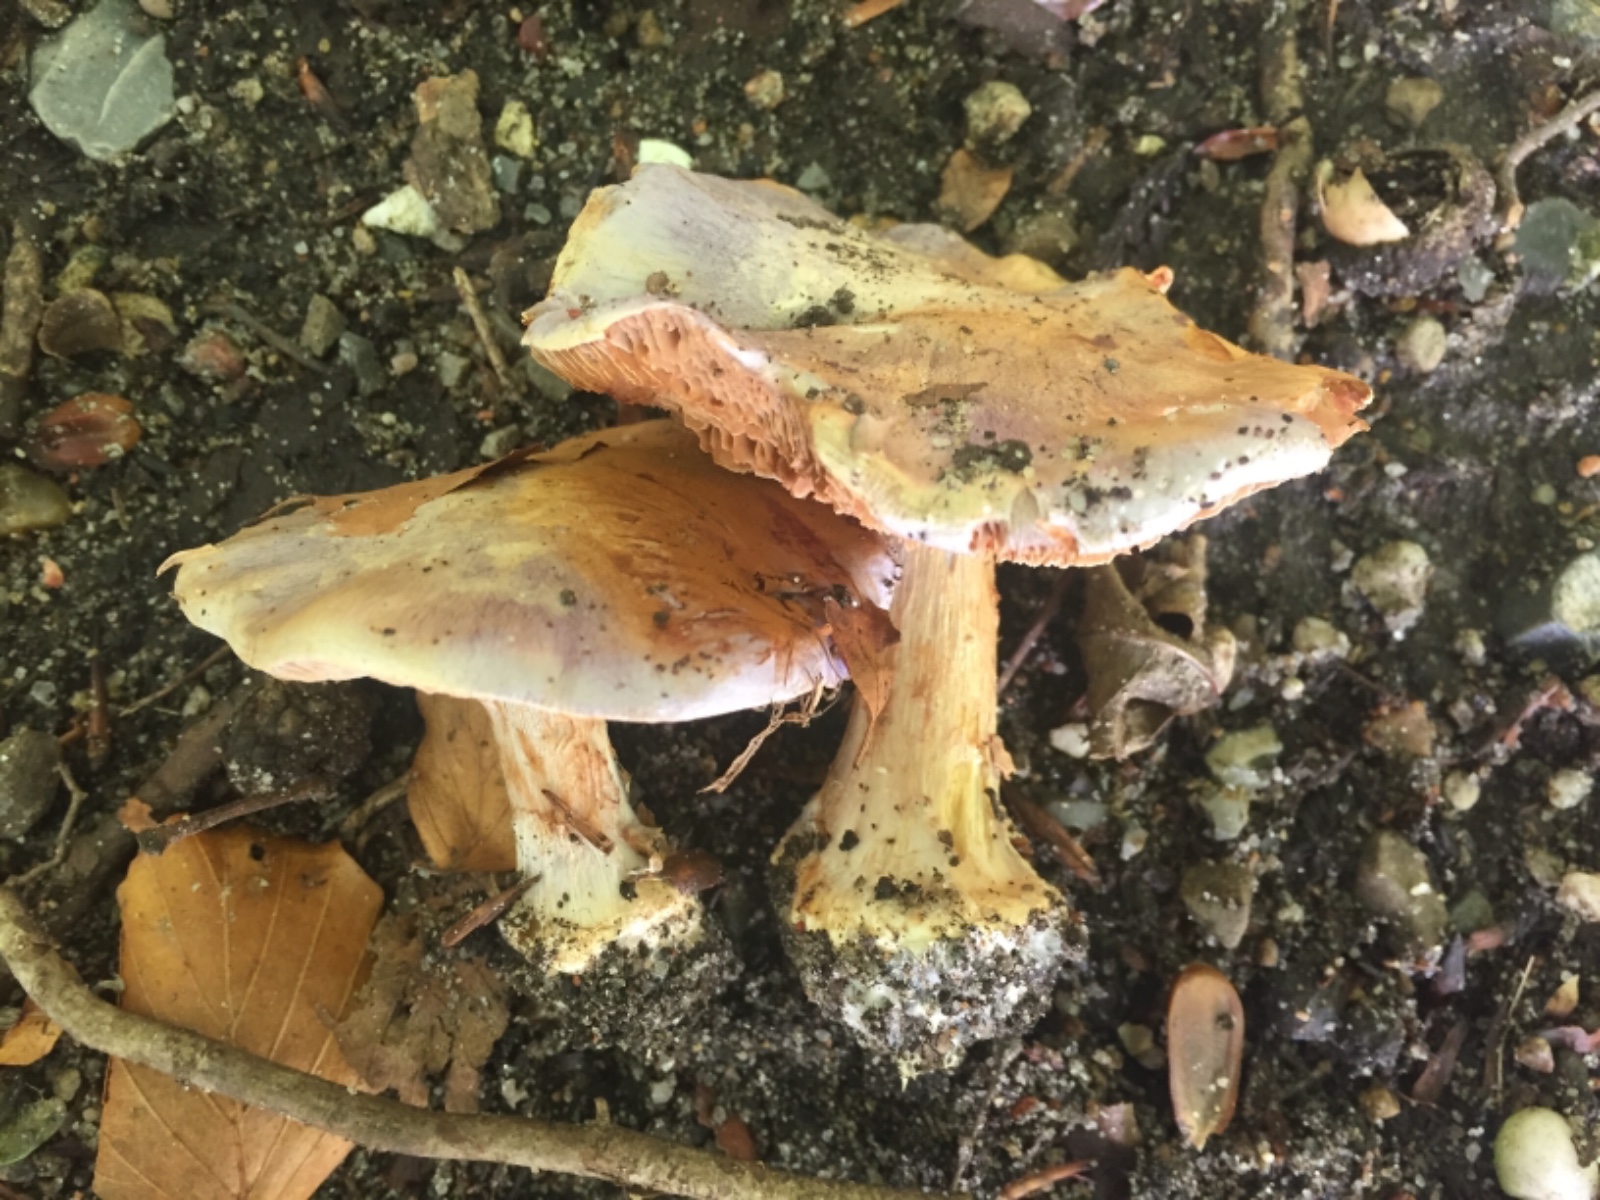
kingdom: Fungi
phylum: Basidiomycota
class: Agaricomycetes
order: Agaricales
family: Cortinariaceae
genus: Cortinarius
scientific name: Cortinarius caerulescens
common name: blåkødet slørhat
